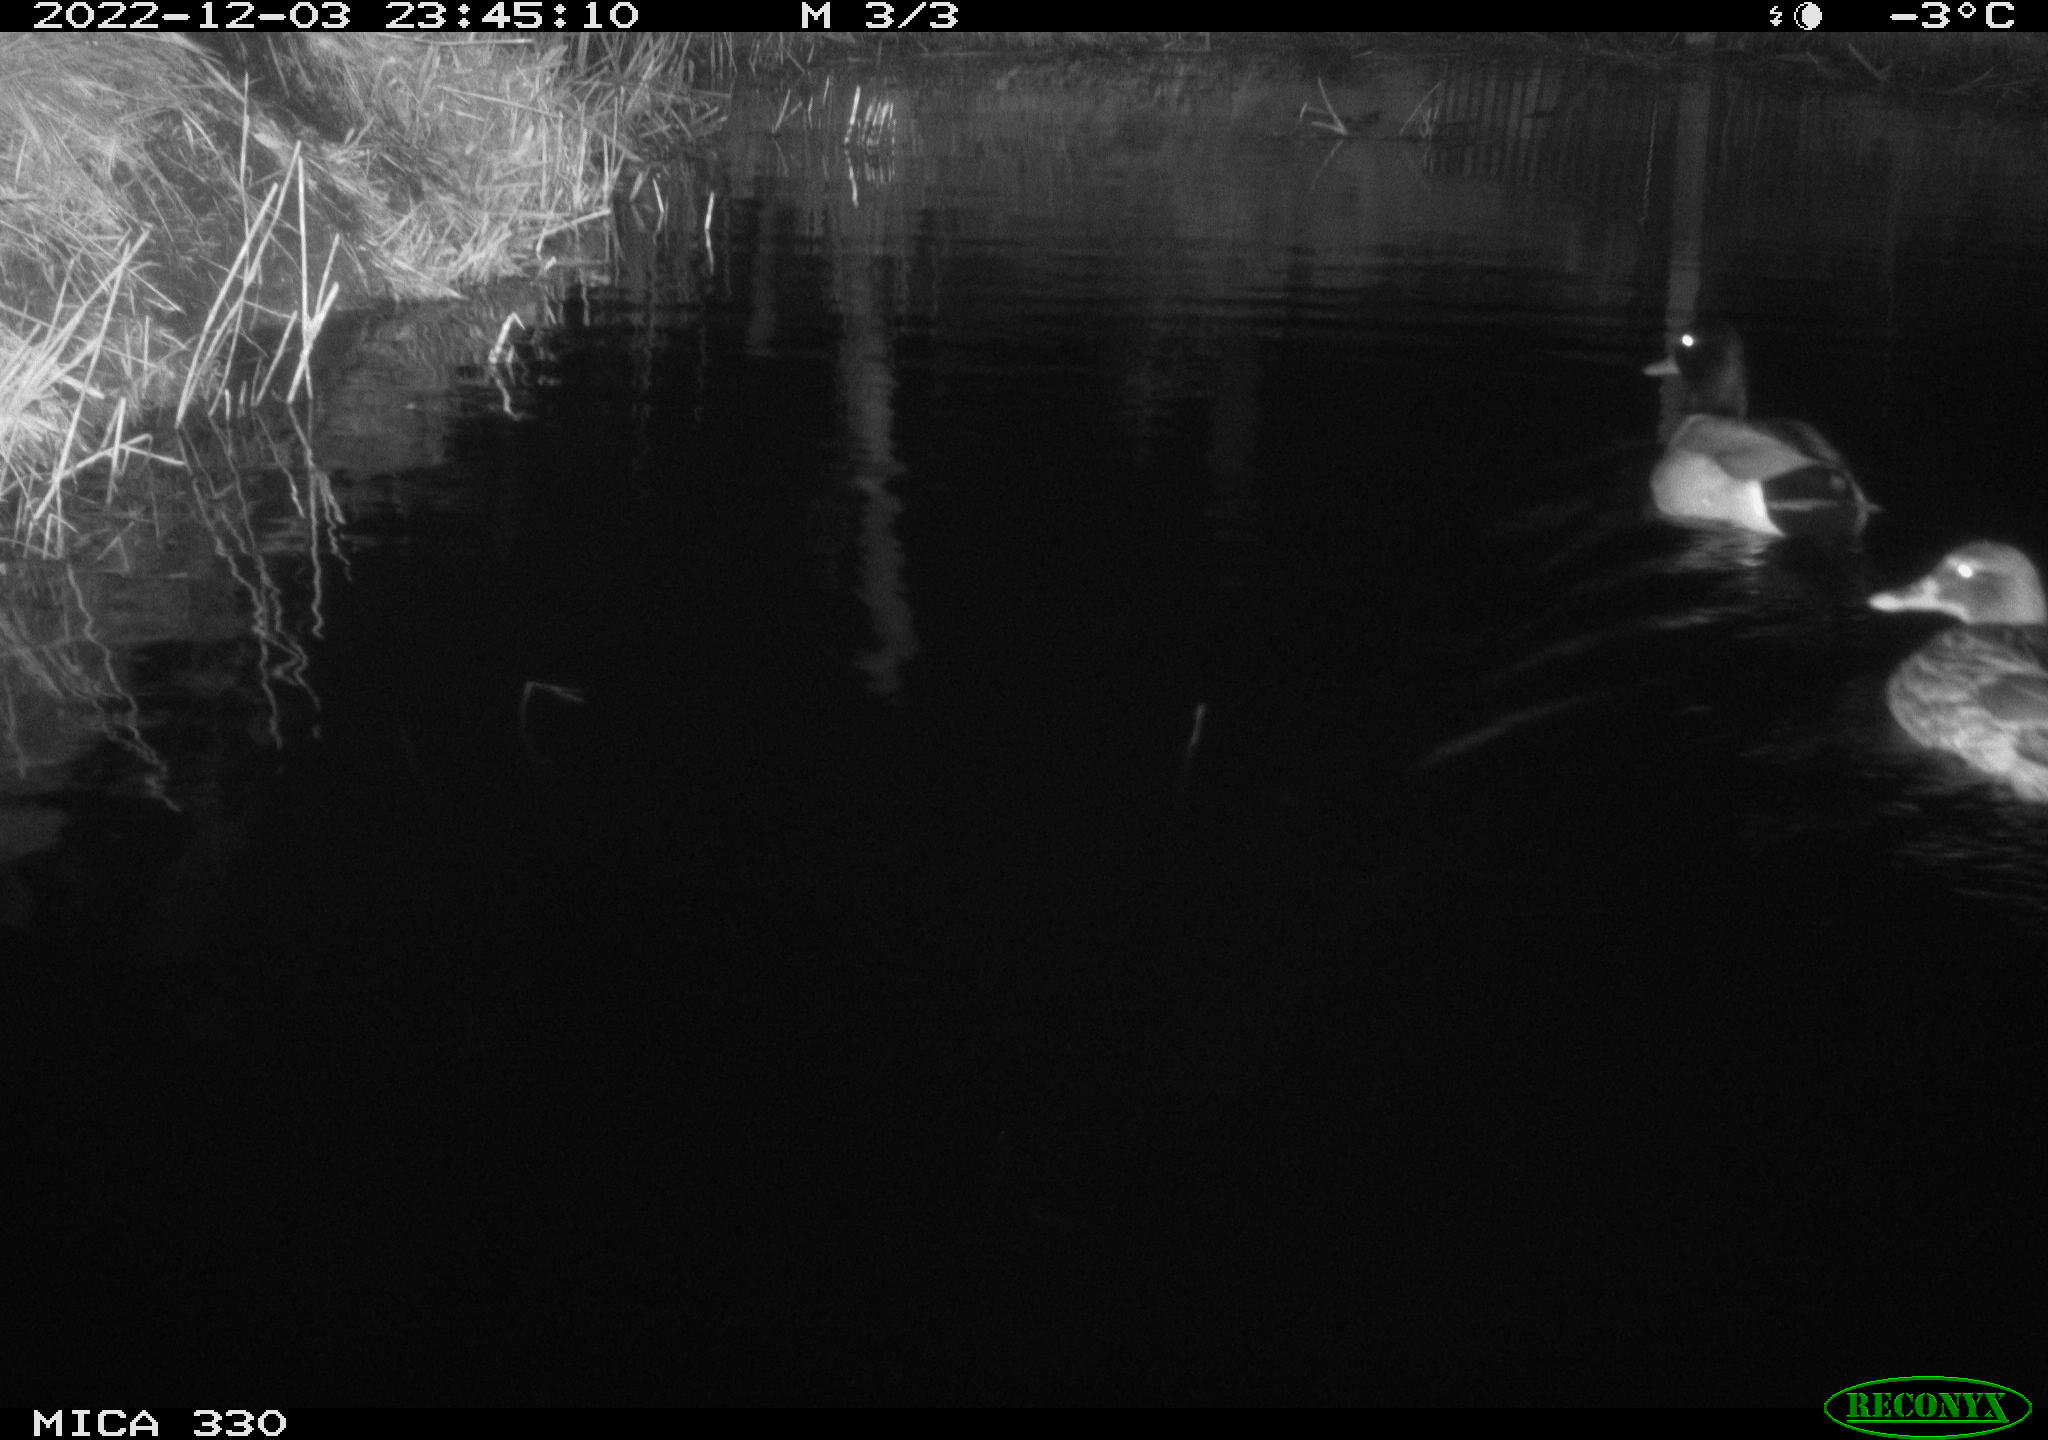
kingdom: Animalia
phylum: Chordata
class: Aves
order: Anseriformes
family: Anatidae
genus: Anas
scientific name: Anas
